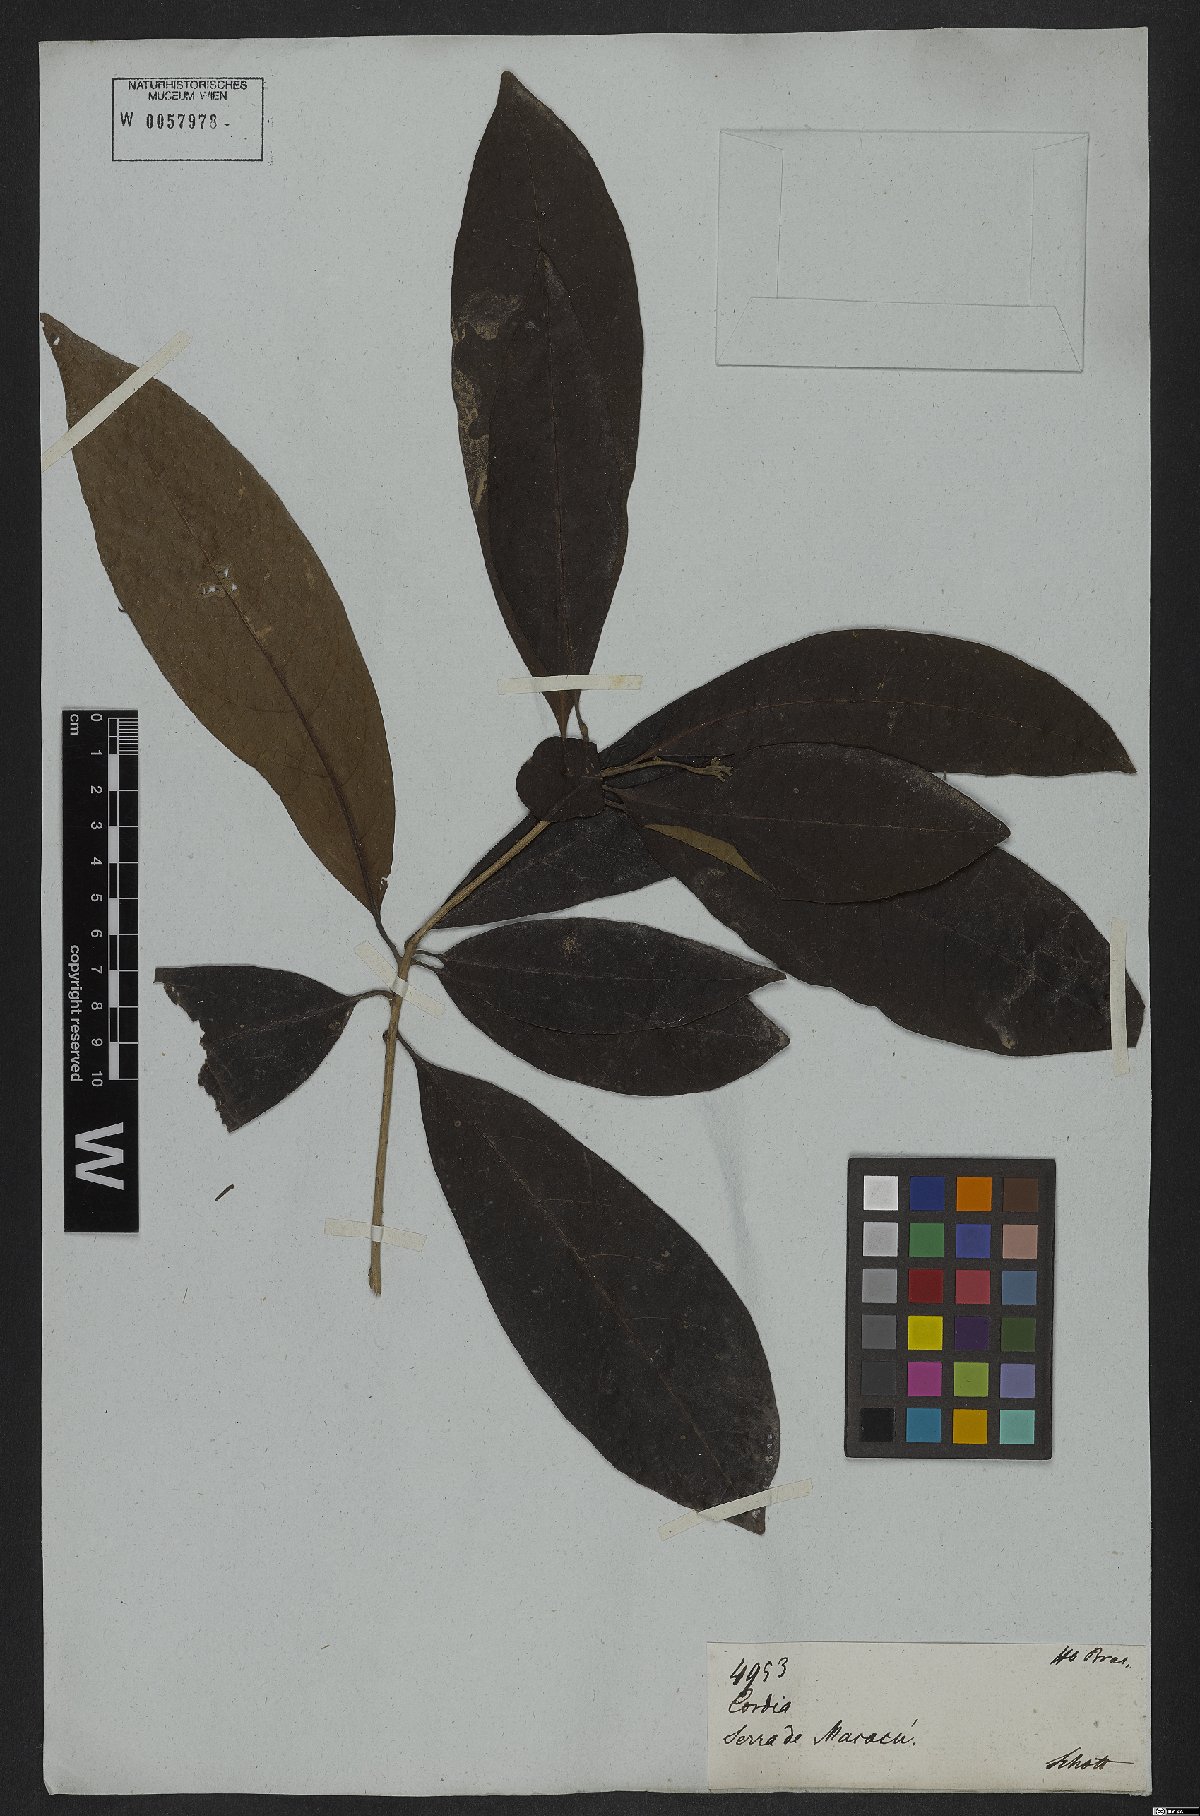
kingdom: Plantae
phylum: Tracheophyta
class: Magnoliopsida
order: Boraginales
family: Cordiaceae
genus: Cordia
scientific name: Cordia glabra
